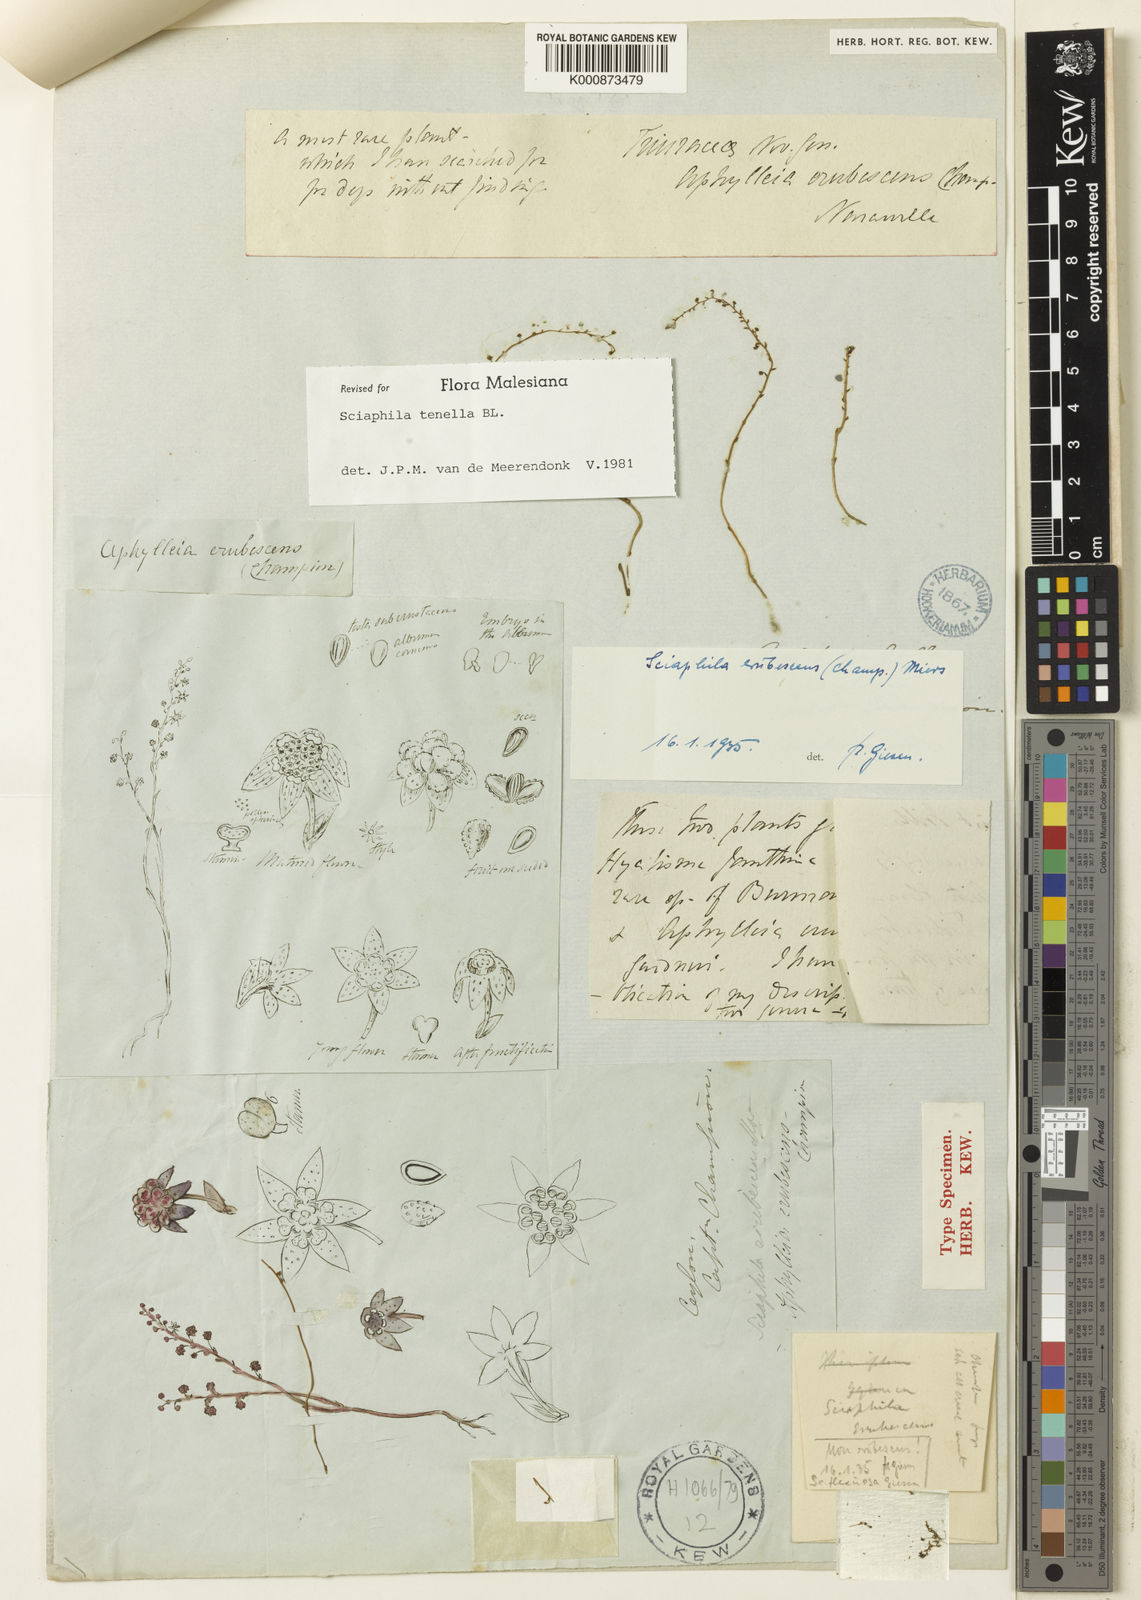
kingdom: Plantae
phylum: Tracheophyta
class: Liliopsida
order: Pandanales
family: Triuridaceae
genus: Sciaphila
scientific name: Sciaphila tenella
